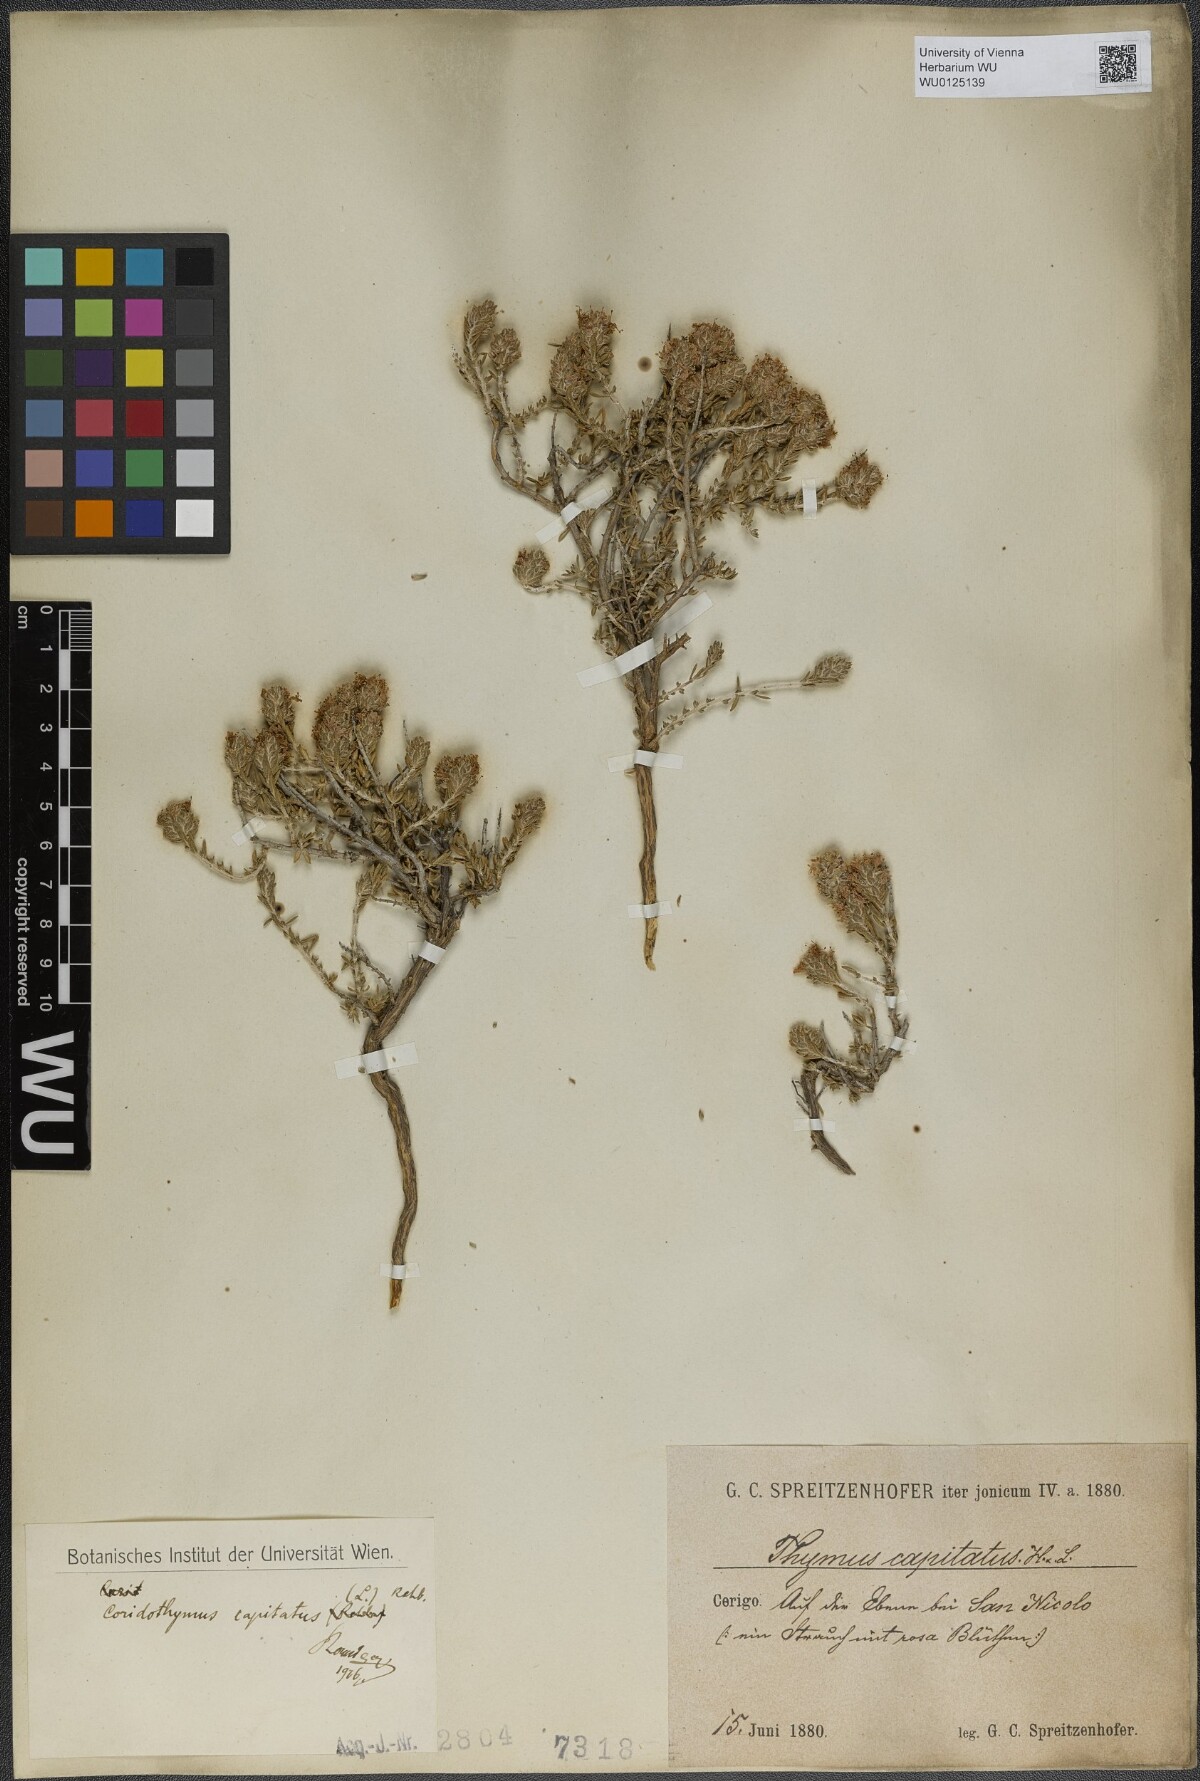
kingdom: Plantae
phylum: Tracheophyta
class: Magnoliopsida
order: Lamiales
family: Lamiaceae
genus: Thymbra
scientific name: Thymbra capitata
